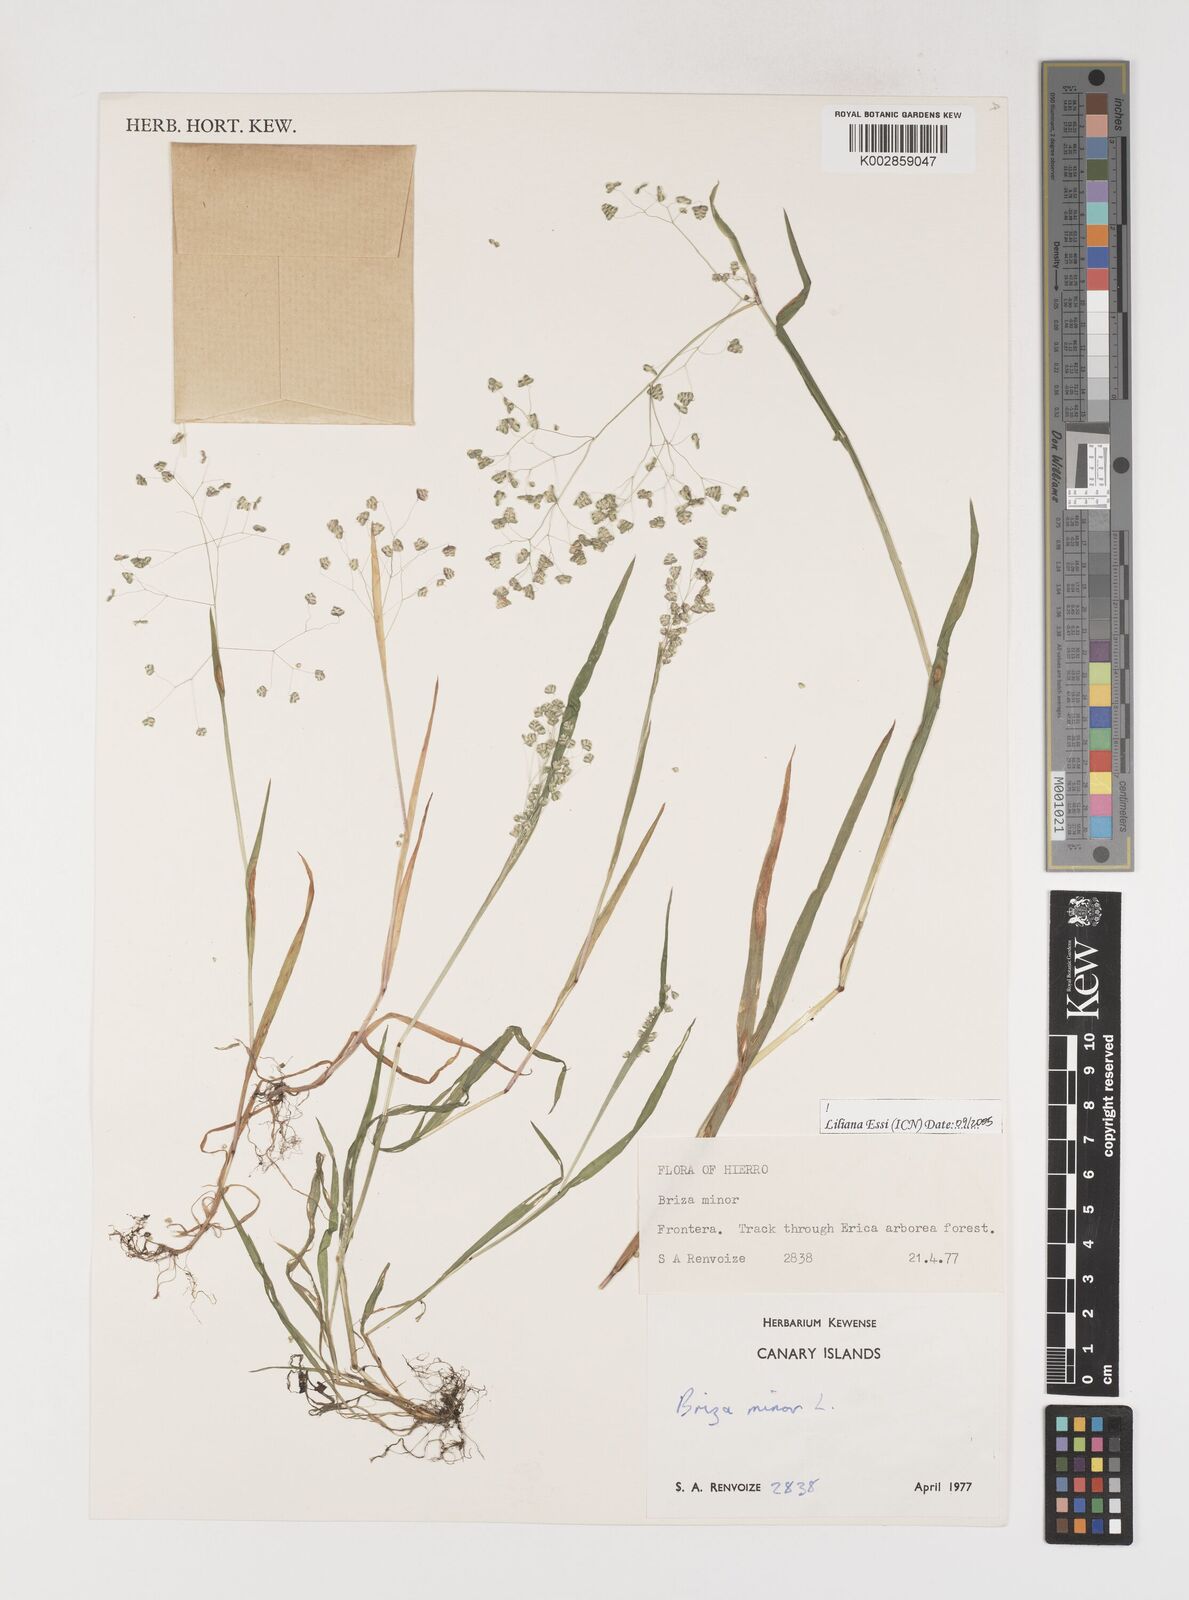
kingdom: Plantae
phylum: Tracheophyta
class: Liliopsida
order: Poales
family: Poaceae
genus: Briza
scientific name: Briza minor
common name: Lesser quaking-grass
